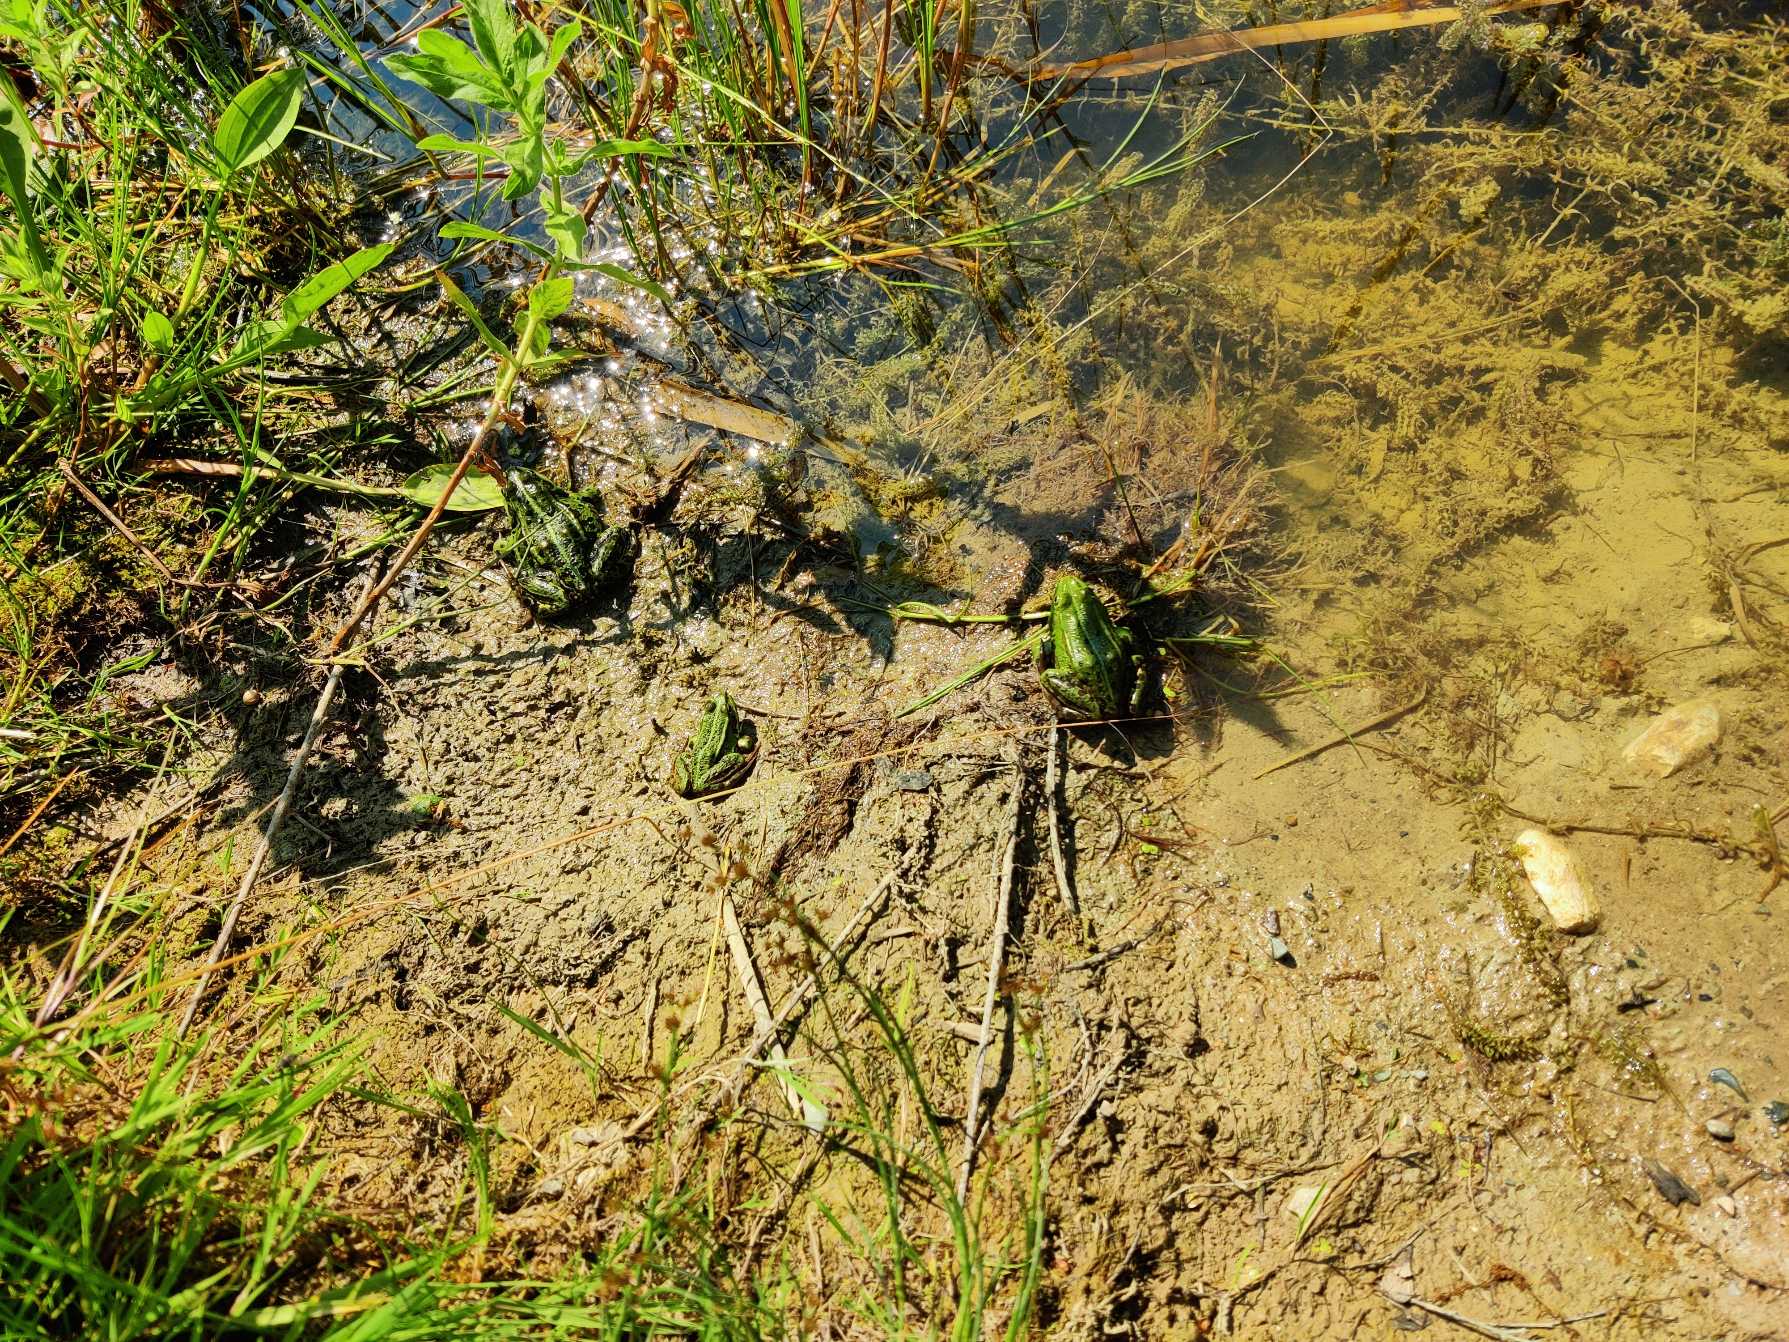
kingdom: Animalia
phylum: Chordata
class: Amphibia
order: Anura
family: Ranidae
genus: Pelophylax
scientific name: Pelophylax lessonae
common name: Grøn frø
